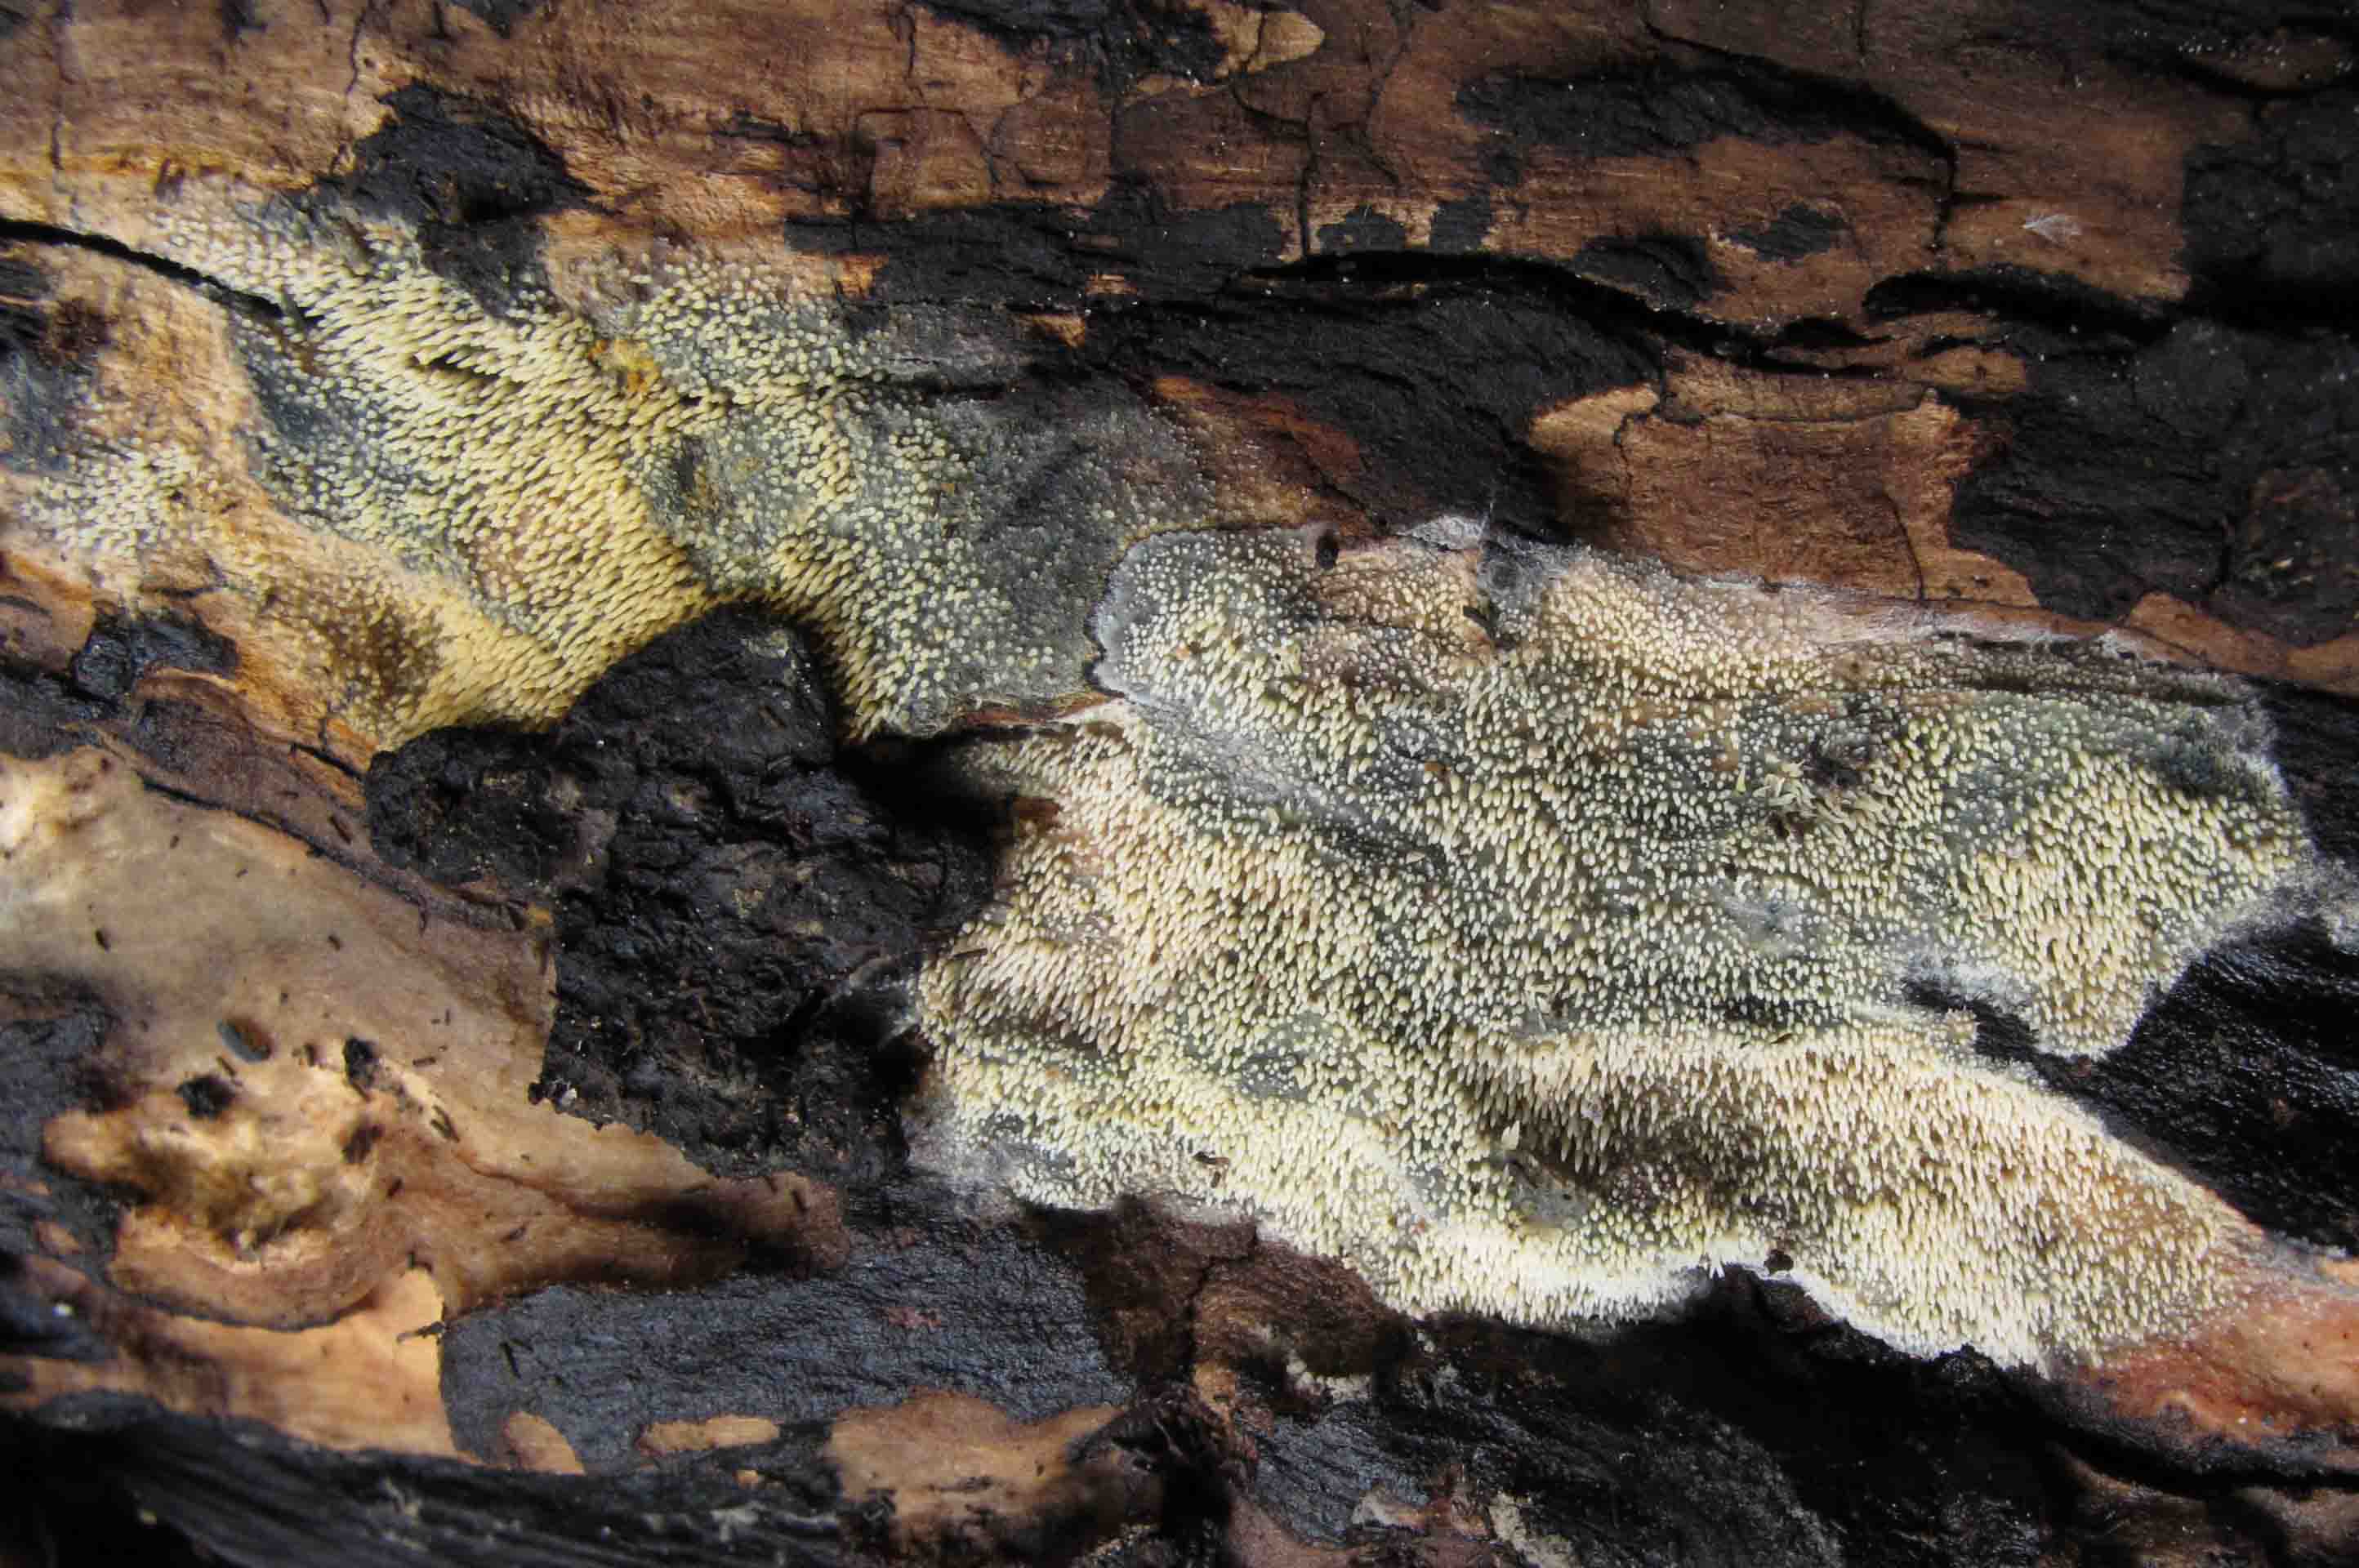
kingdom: Fungi
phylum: Basidiomycota
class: Agaricomycetes
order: Polyporales
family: Meruliaceae
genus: Mycoacia
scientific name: Mycoacia uda
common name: citrongul vokspig
